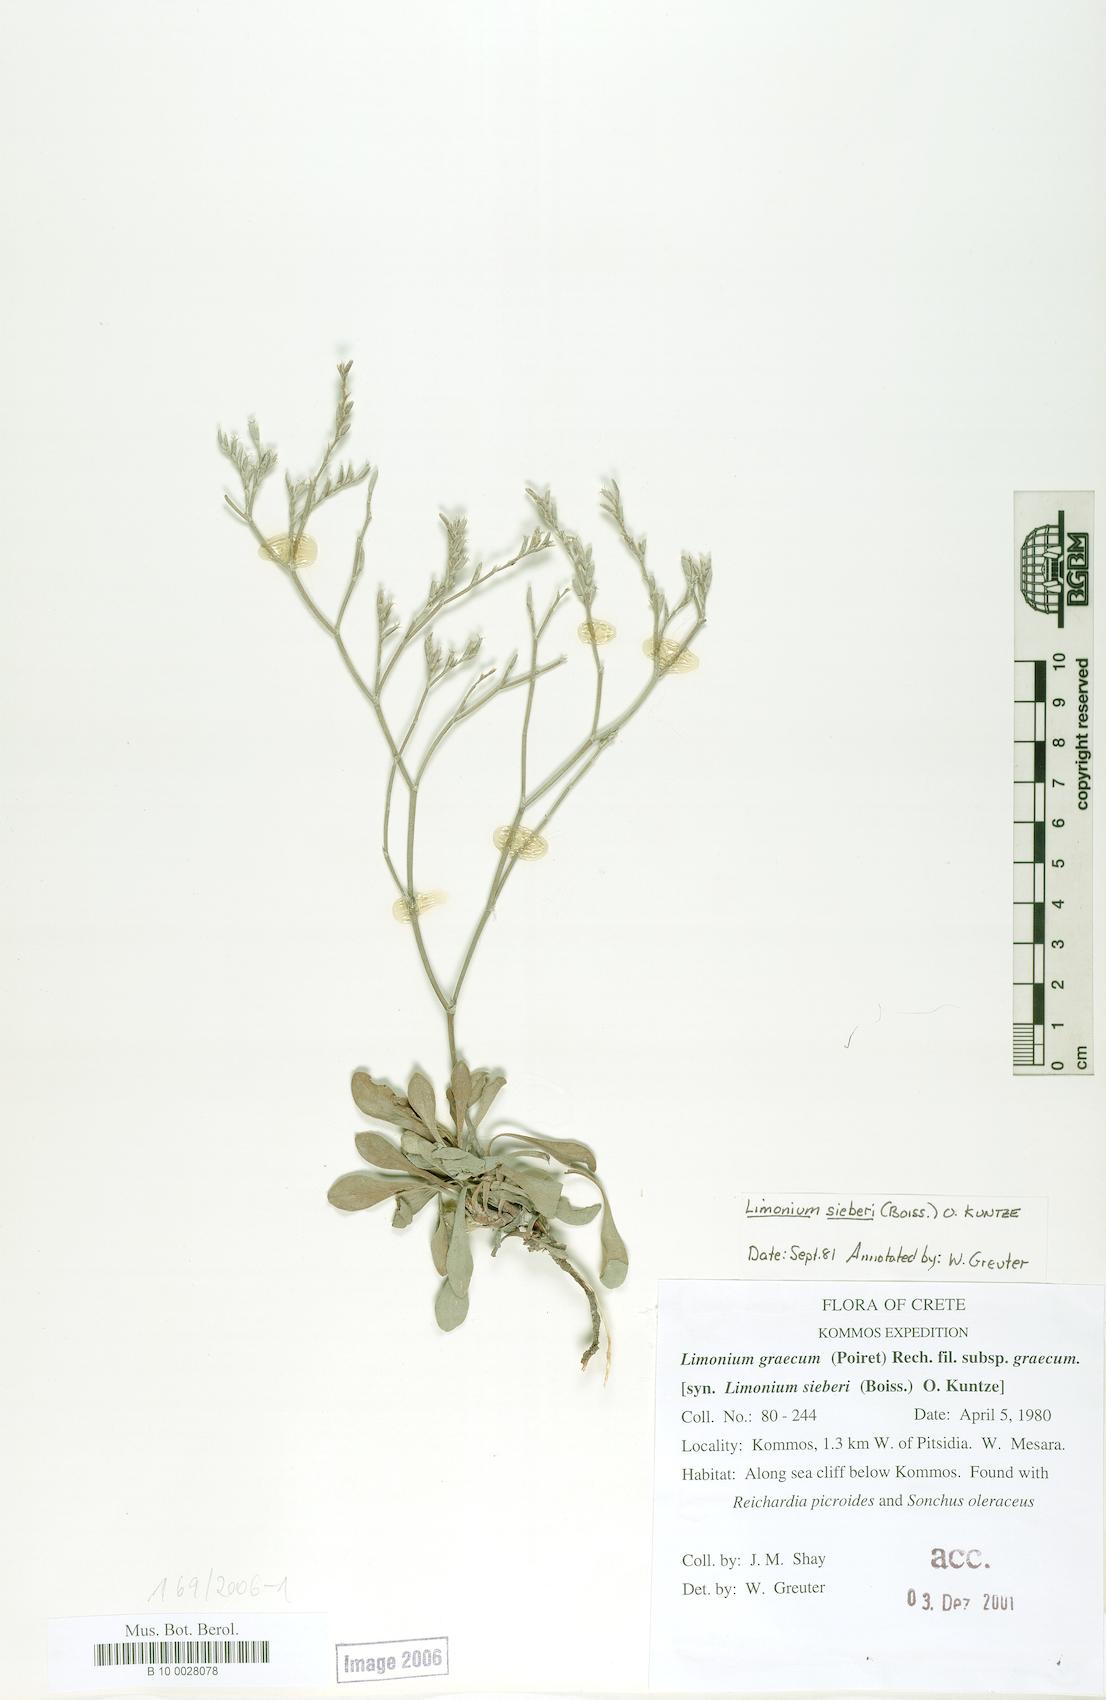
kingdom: Plantae
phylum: Tracheophyta
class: Magnoliopsida
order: Caryophyllales
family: Plumbaginaceae
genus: Limonium
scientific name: Limonium sieberi
